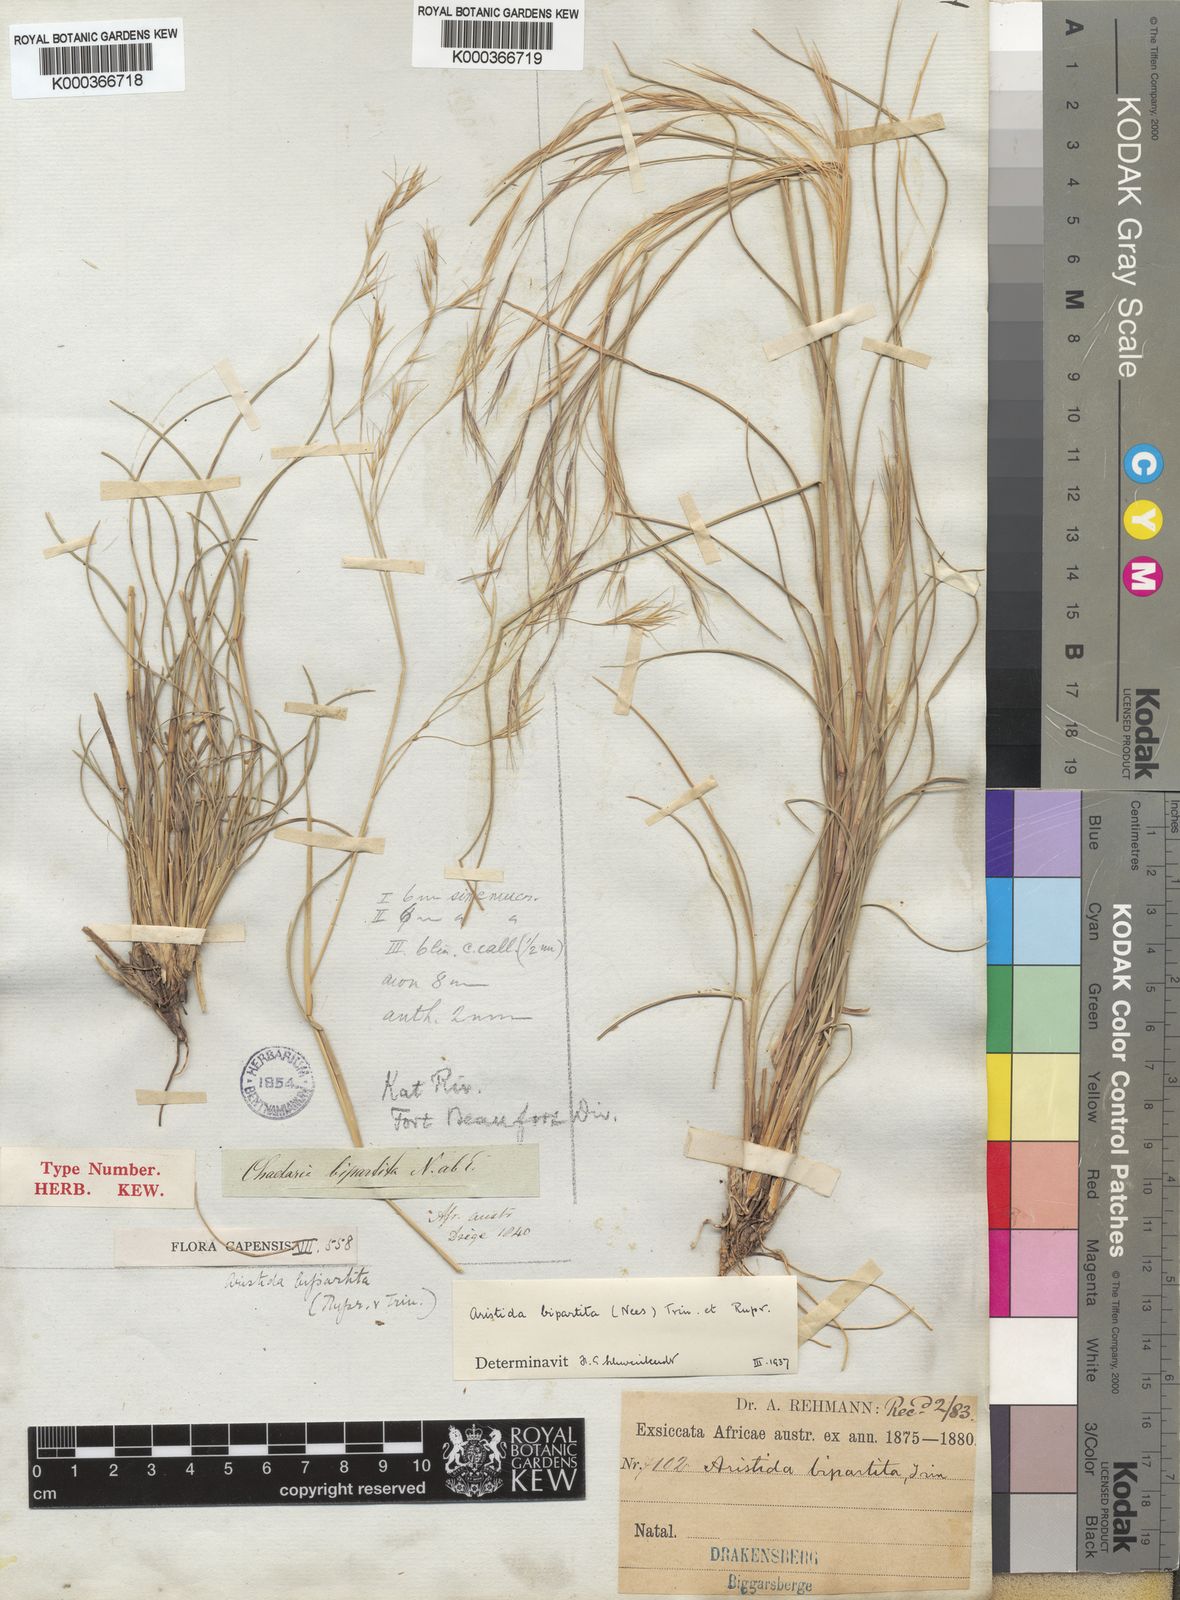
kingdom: Plantae
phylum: Tracheophyta
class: Liliopsida
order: Poales
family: Poaceae
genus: Aristida
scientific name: Aristida bipartita
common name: Three-awn rolling grass
